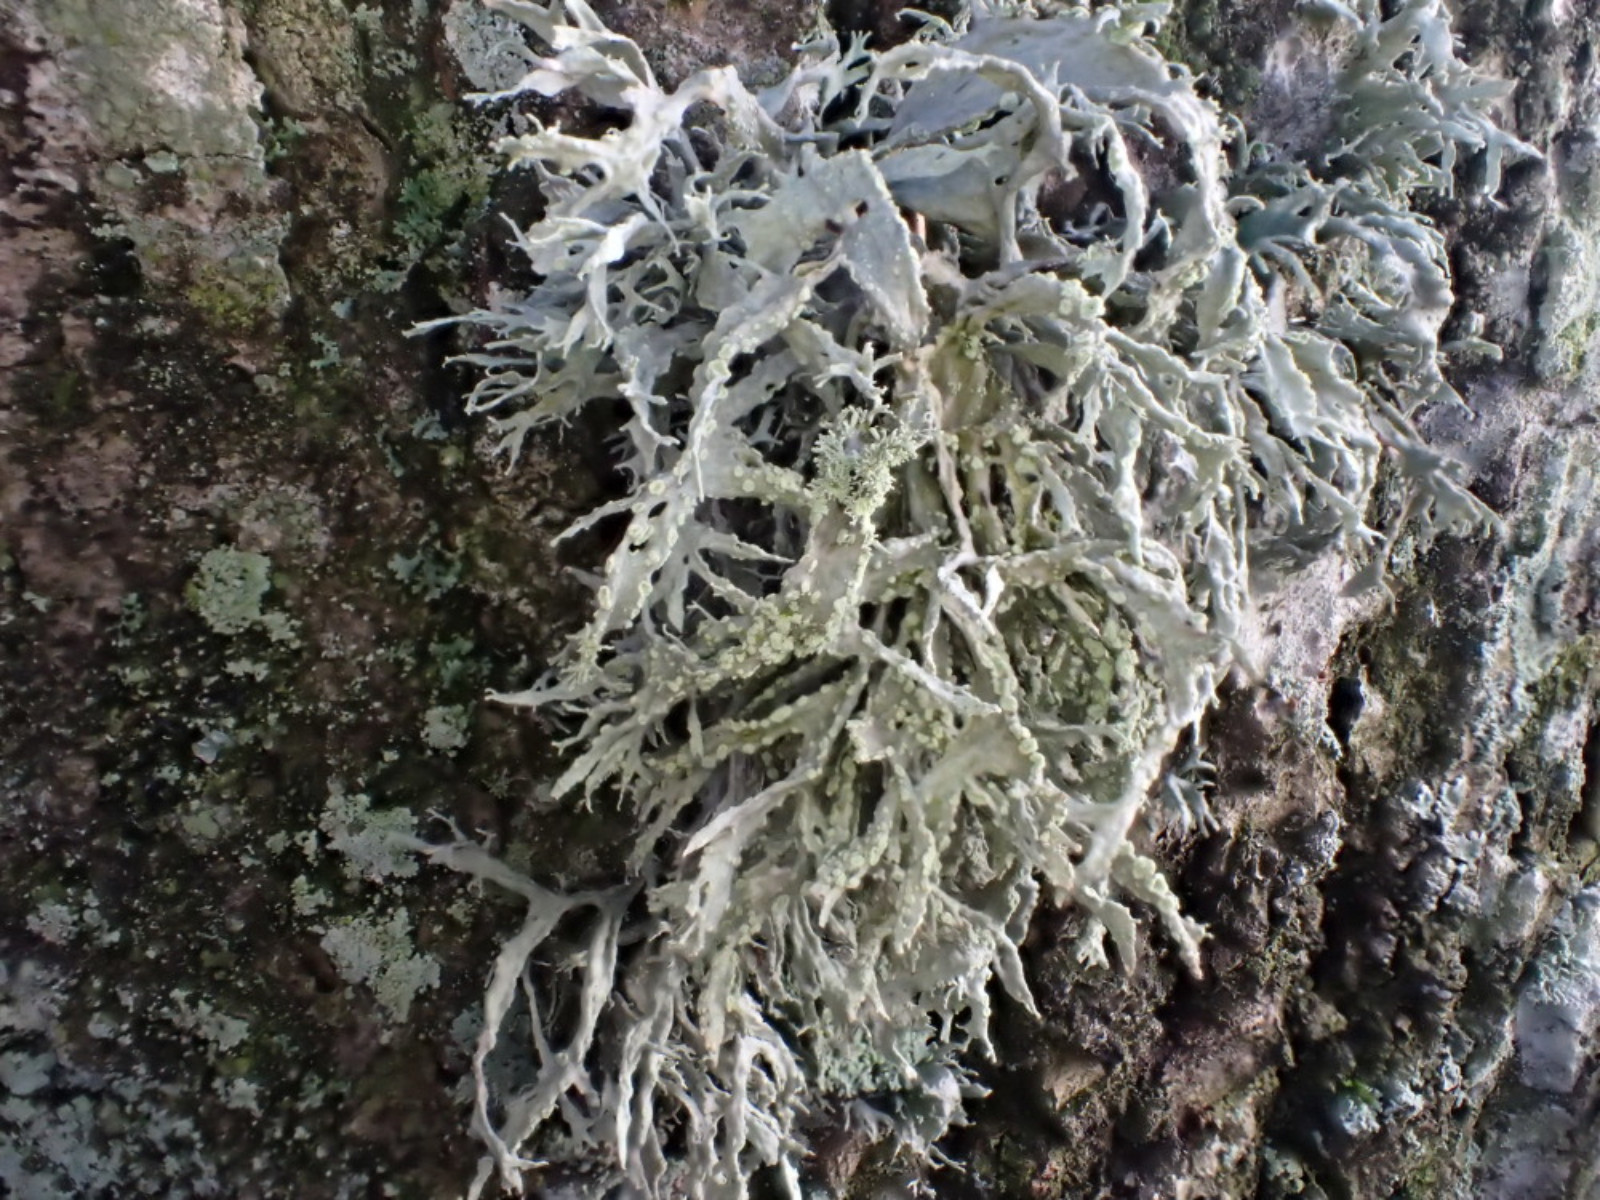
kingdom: Fungi
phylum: Ascomycota
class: Lecanoromycetes
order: Lecanorales
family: Ramalinaceae
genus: Ramalina
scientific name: Ramalina farinacea
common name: melet grenlav
